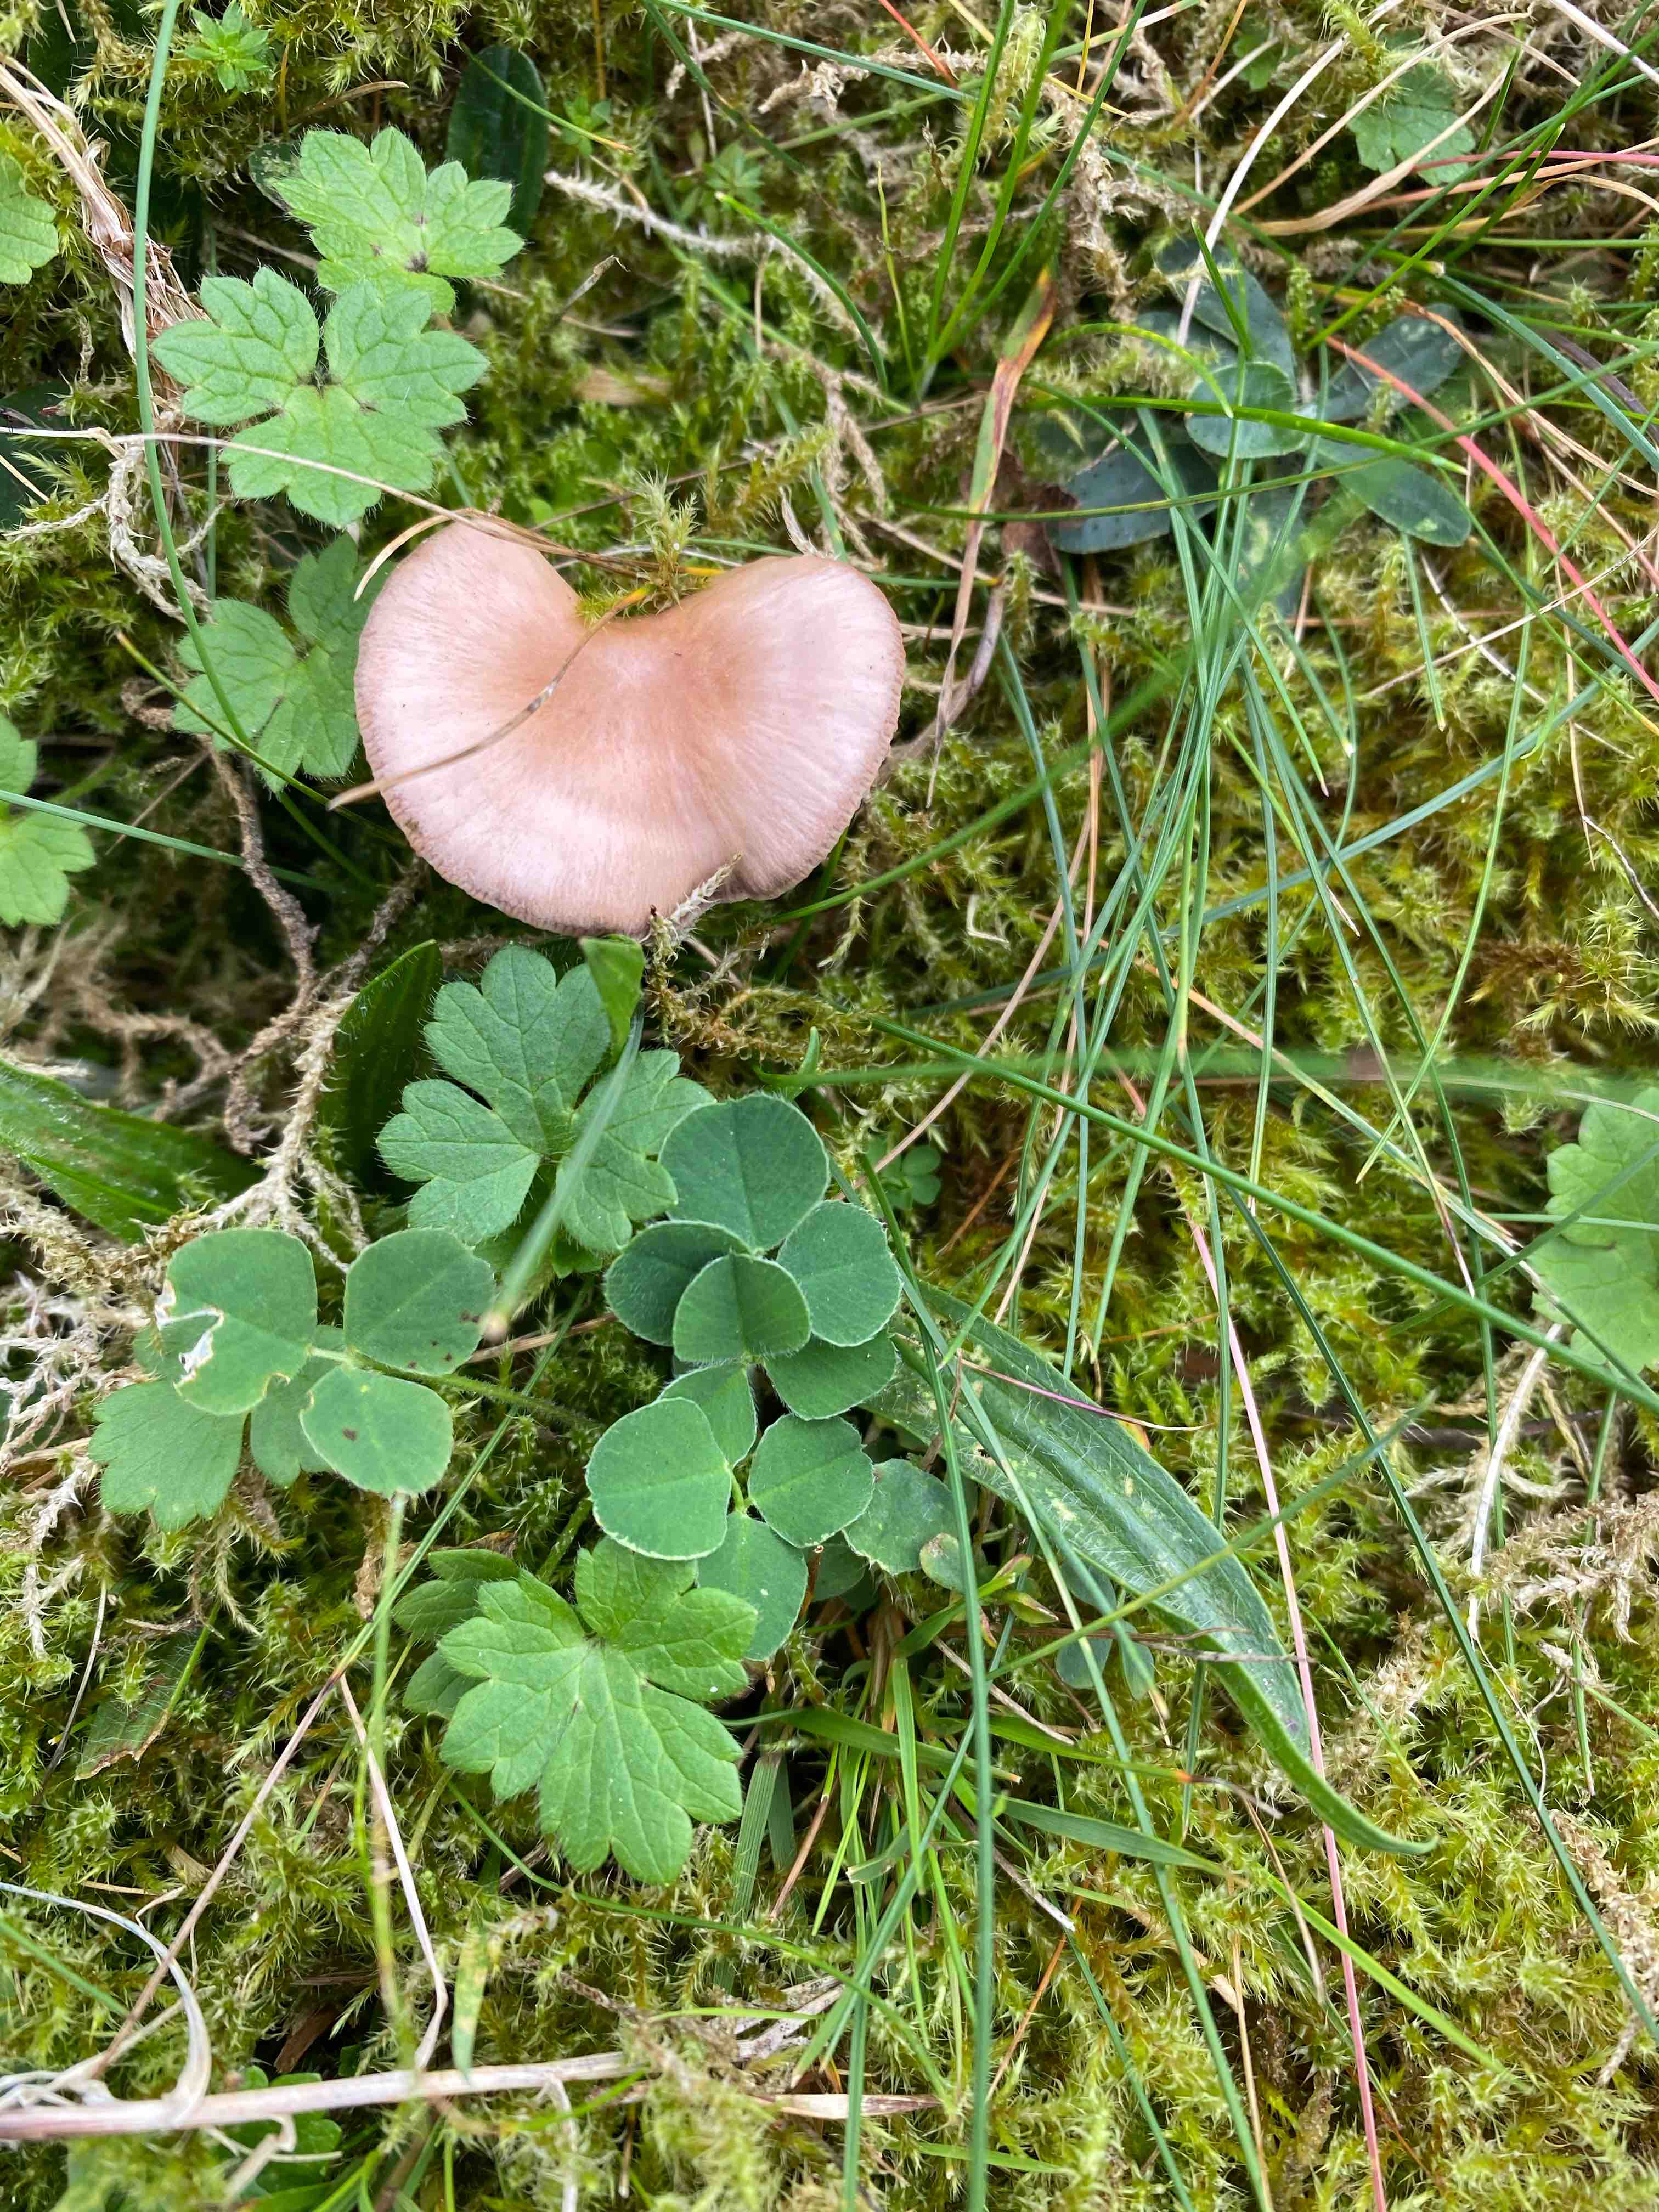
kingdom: Fungi
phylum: Basidiomycota
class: Agaricomycetes
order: Agaricales
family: Mycenaceae
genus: Mycena
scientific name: Mycena
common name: huesvamp
